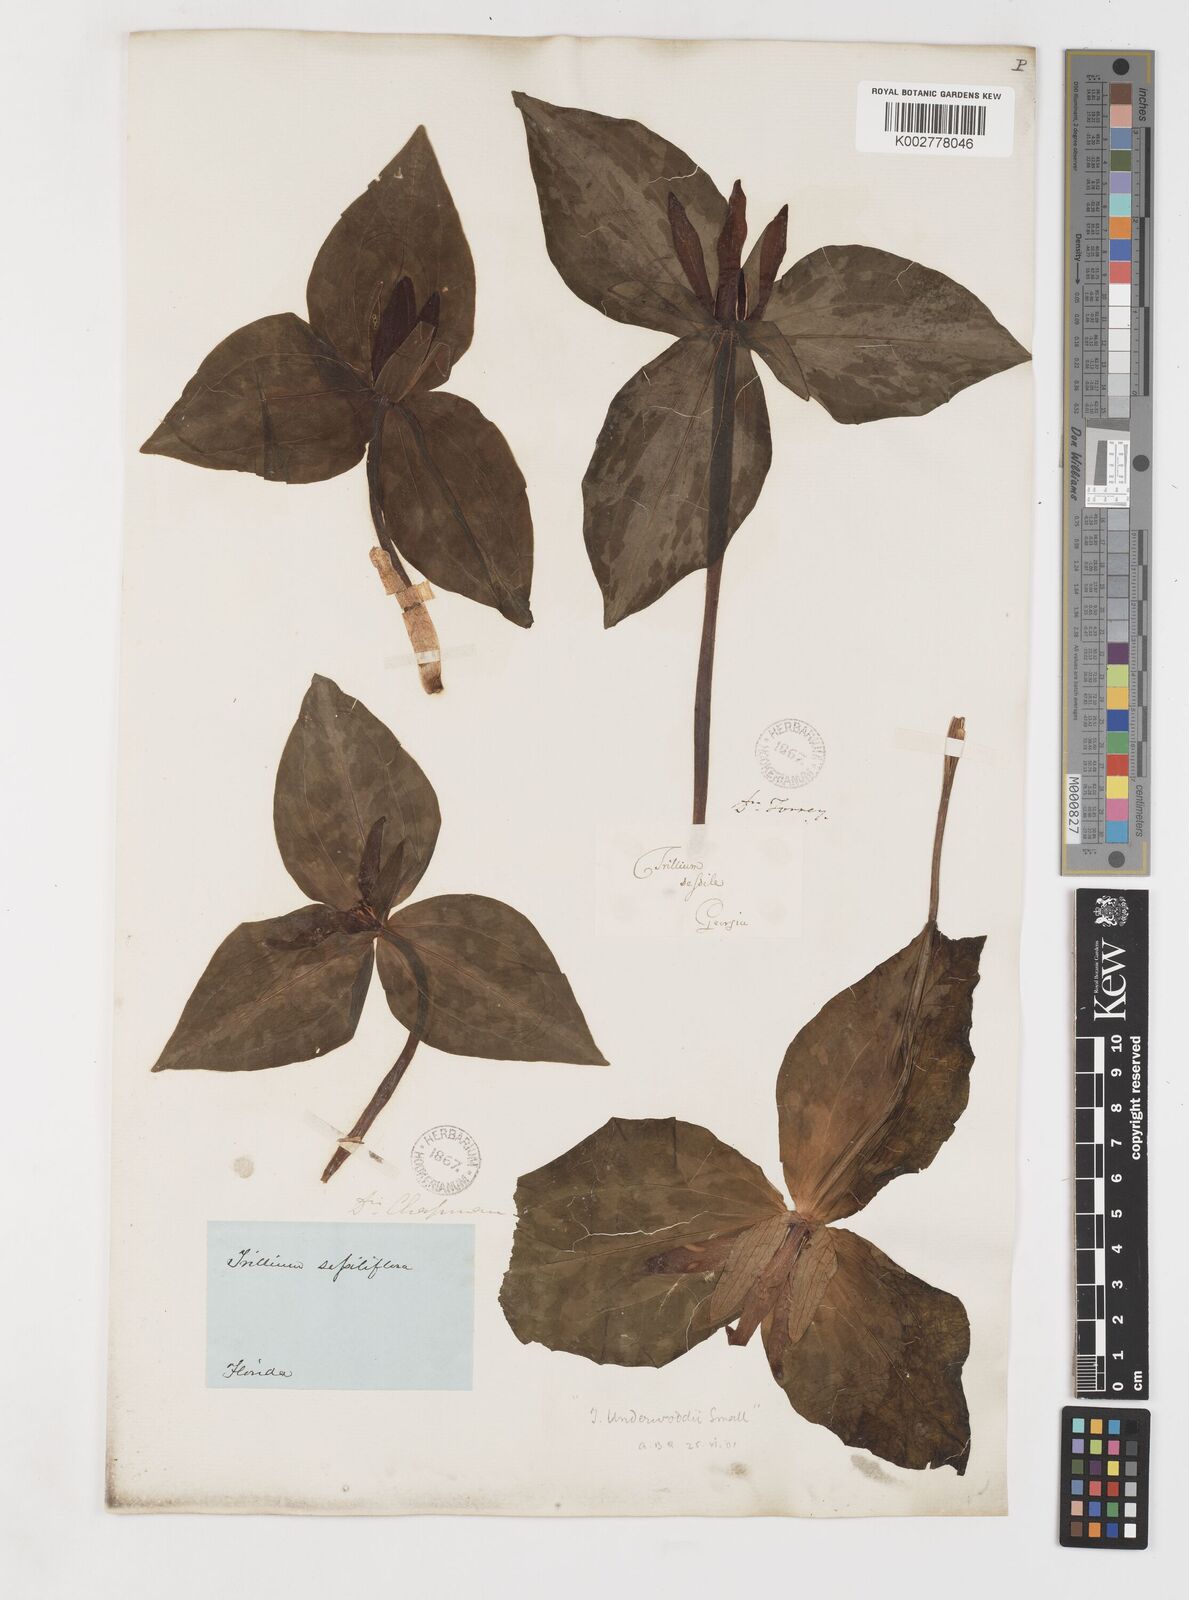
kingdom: Plantae
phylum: Tracheophyta
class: Liliopsida
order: Liliales
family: Melanthiaceae
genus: Trillium
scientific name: Trillium underwoodii
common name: Longbract wakerobin
